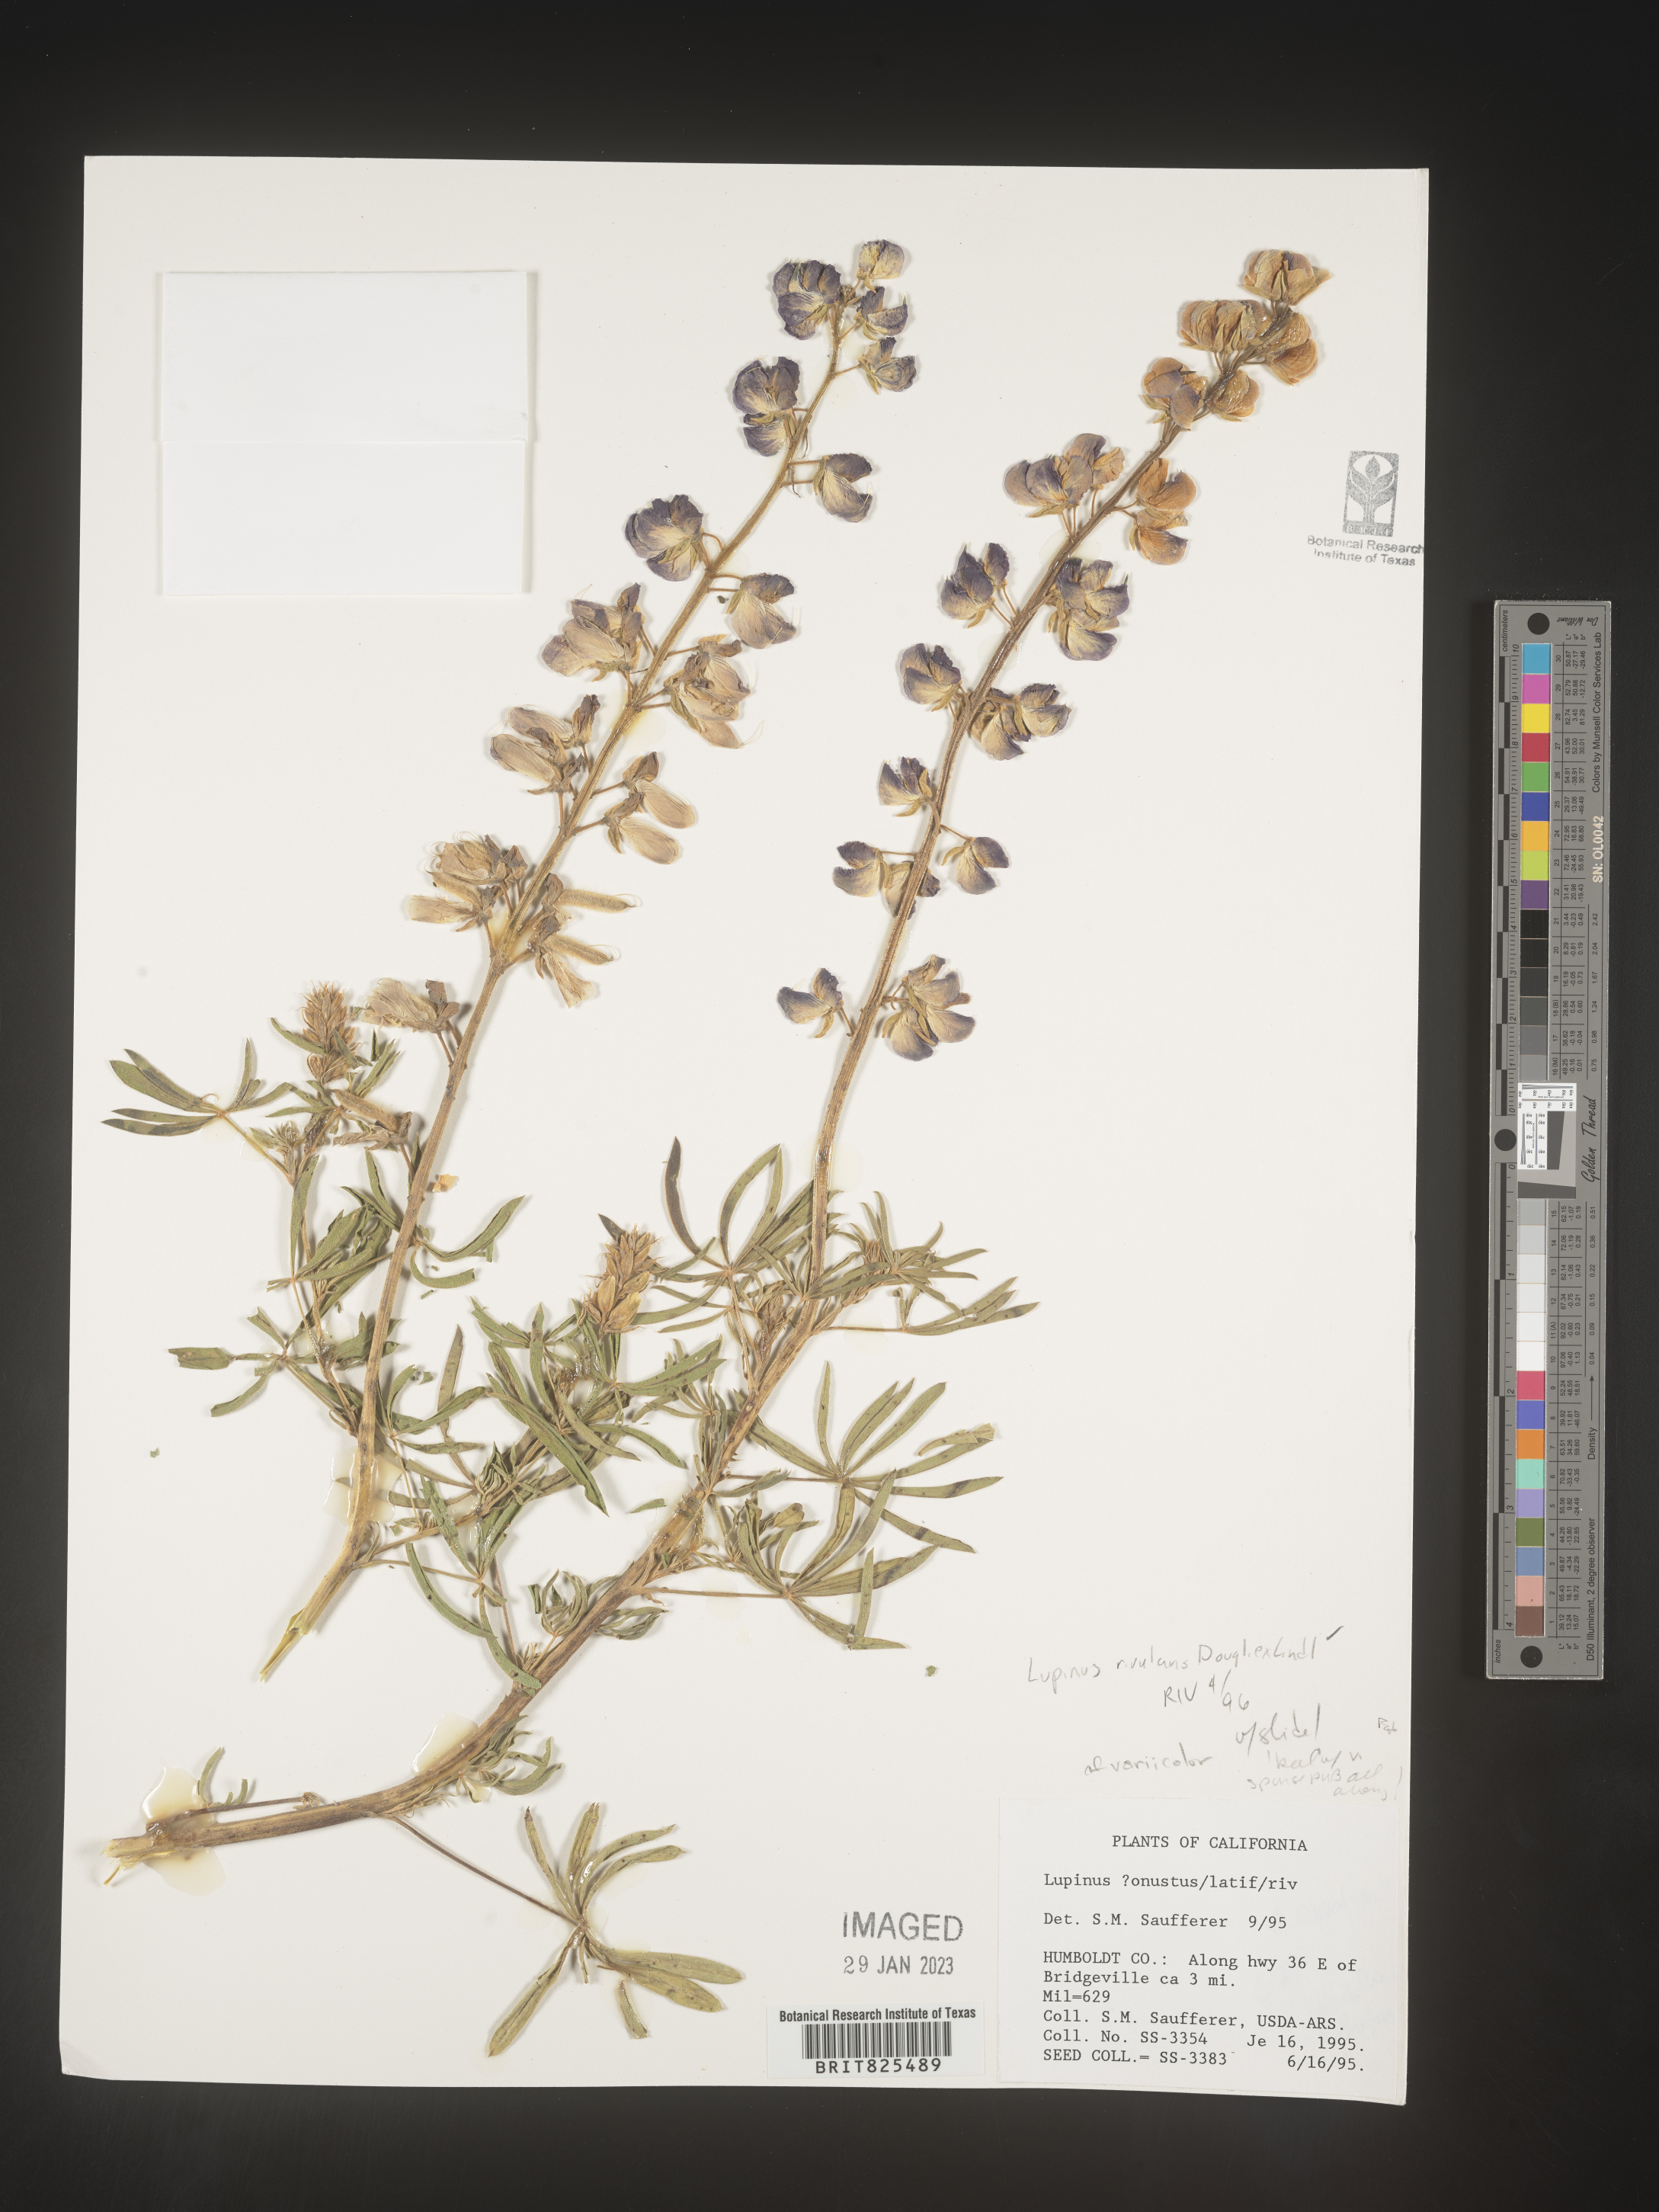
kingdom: Plantae
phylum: Tracheophyta
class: Magnoliopsida
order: Fabales
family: Fabaceae
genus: Lupinus
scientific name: Lupinus
